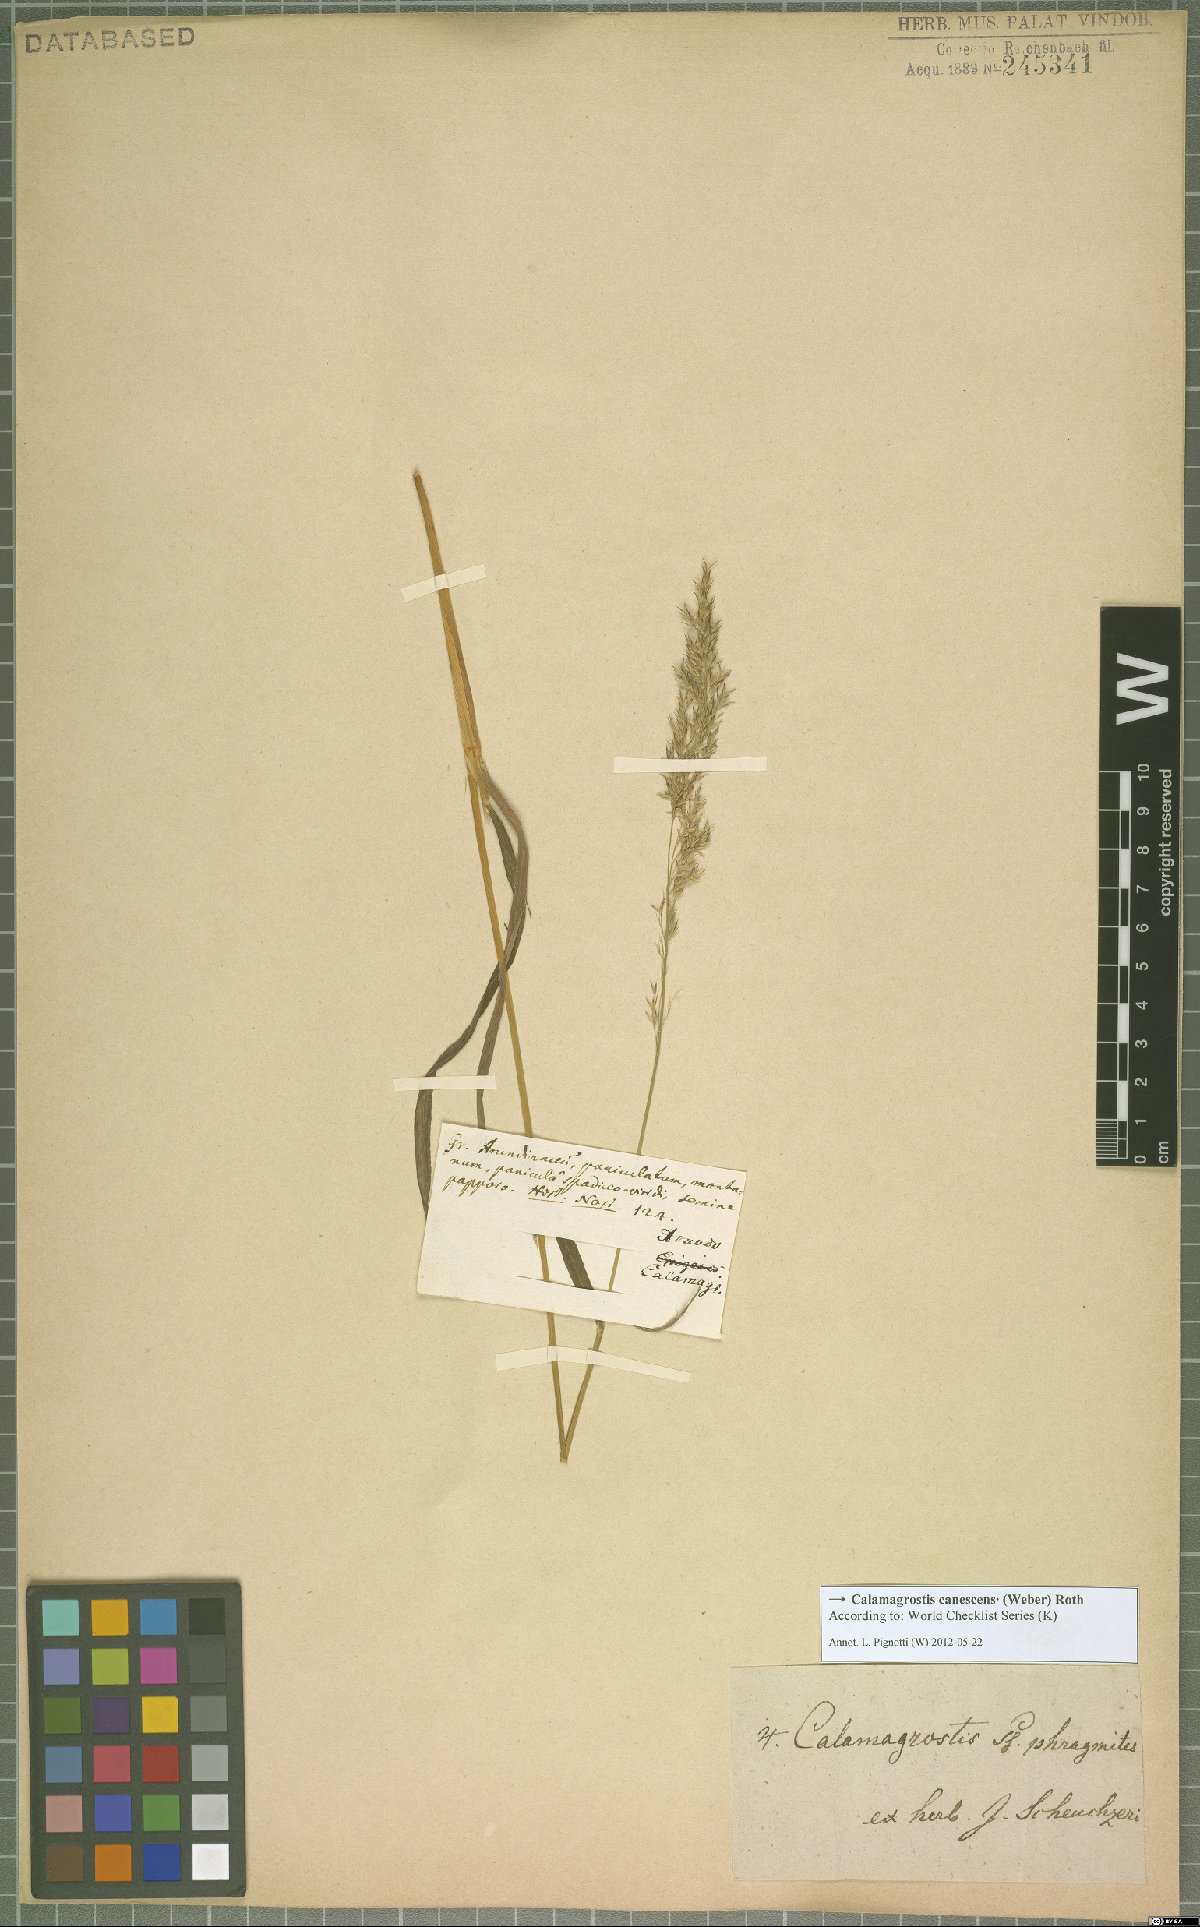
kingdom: Plantae
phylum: Tracheophyta
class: Liliopsida
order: Poales
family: Poaceae
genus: Calamagrostis
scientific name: Calamagrostis canescens
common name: Purple small-reed
